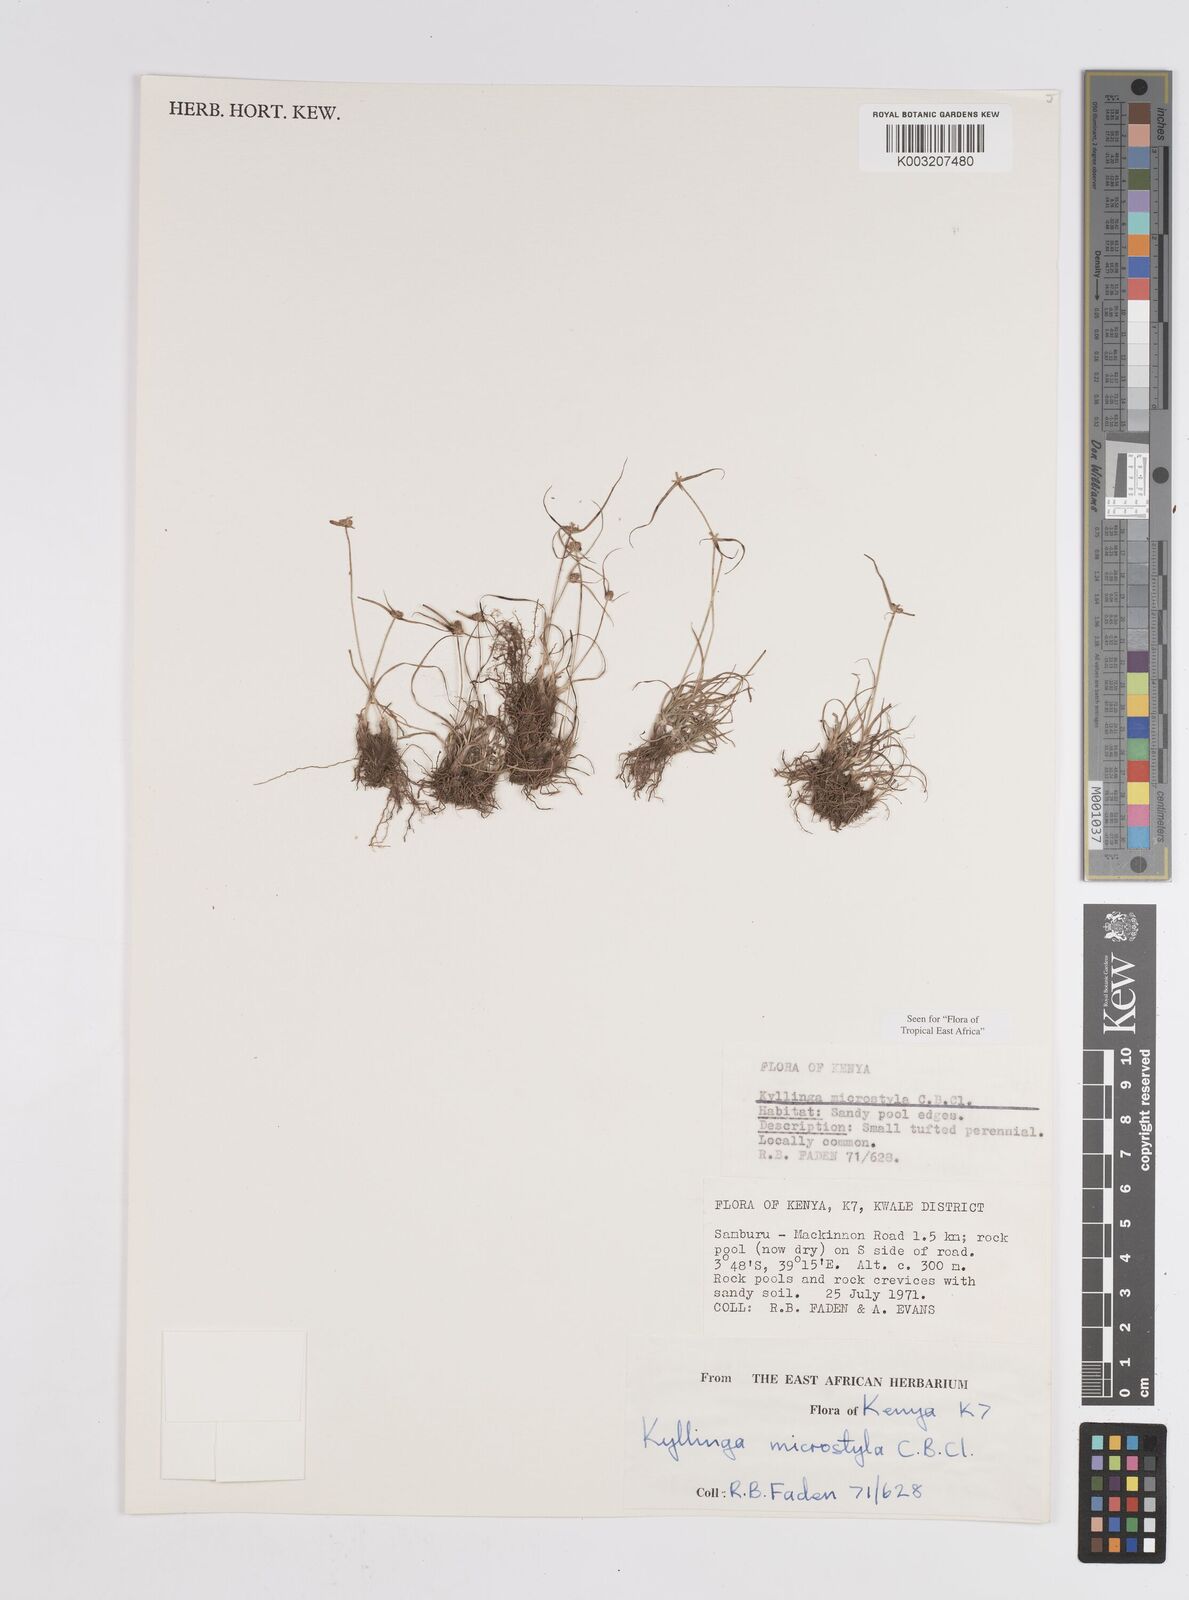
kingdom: Plantae
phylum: Tracheophyta
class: Liliopsida
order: Poales
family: Cyperaceae
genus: Cyperus
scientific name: Cyperus microstylus
